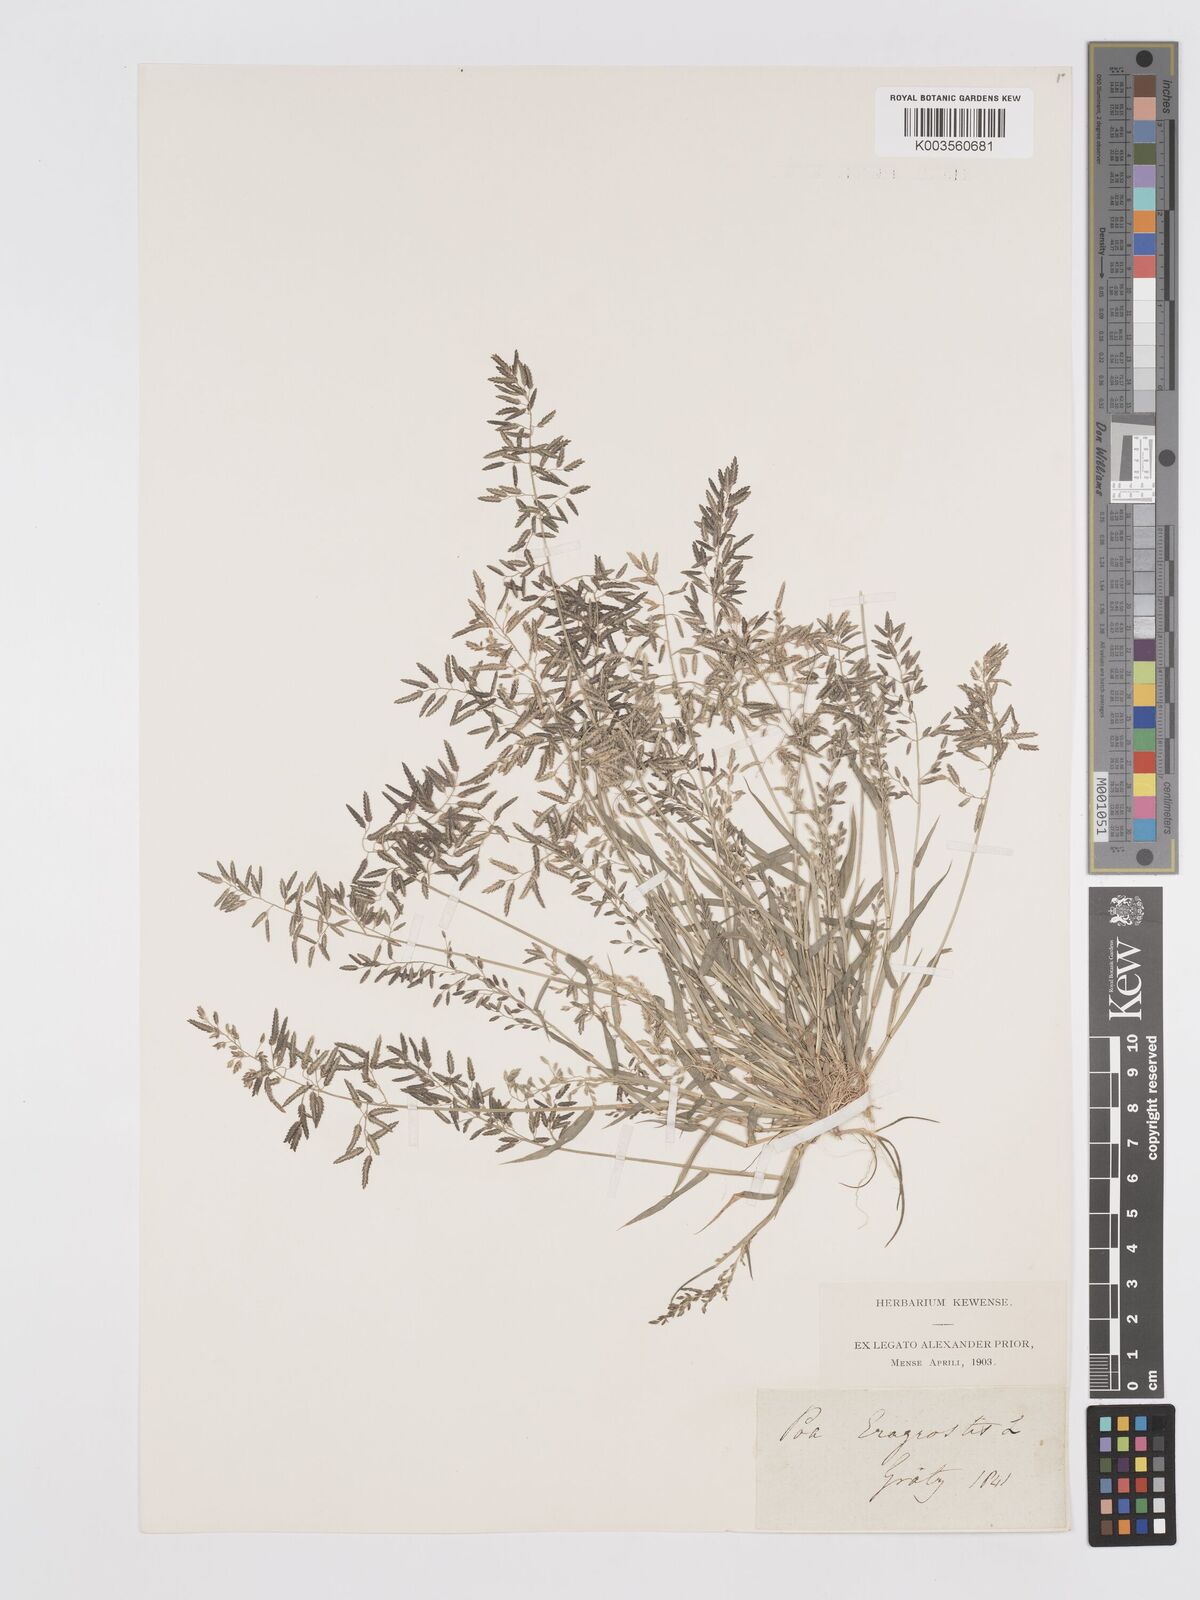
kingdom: Plantae
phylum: Tracheophyta
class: Liliopsida
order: Poales
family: Poaceae
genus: Eragrostis
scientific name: Eragrostis minor
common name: Small love-grass
